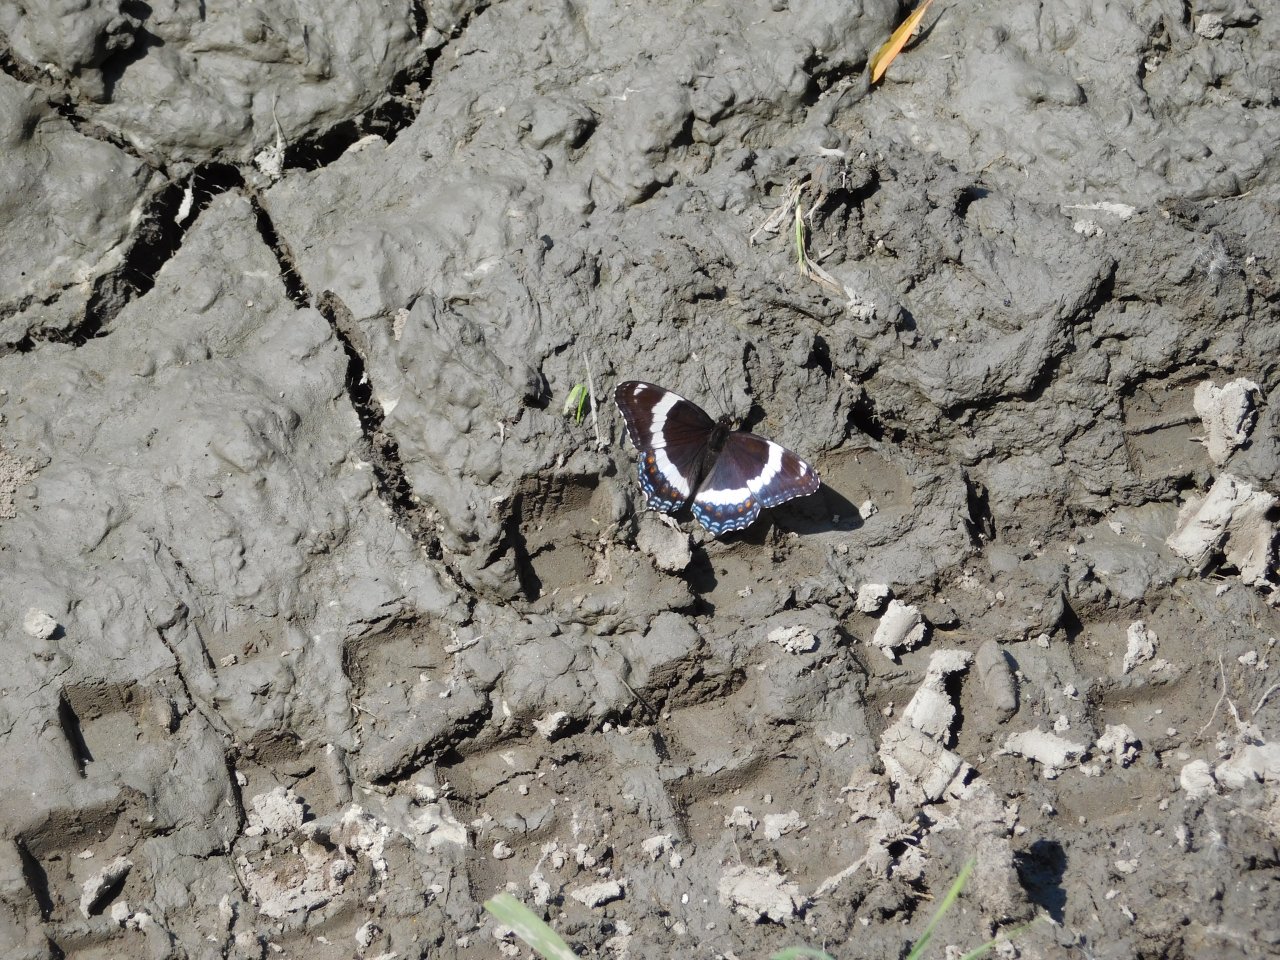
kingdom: Animalia
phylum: Arthropoda
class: Insecta
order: Lepidoptera
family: Nymphalidae
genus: Limenitis
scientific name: Limenitis arthemis
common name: Red-spotted Admiral
